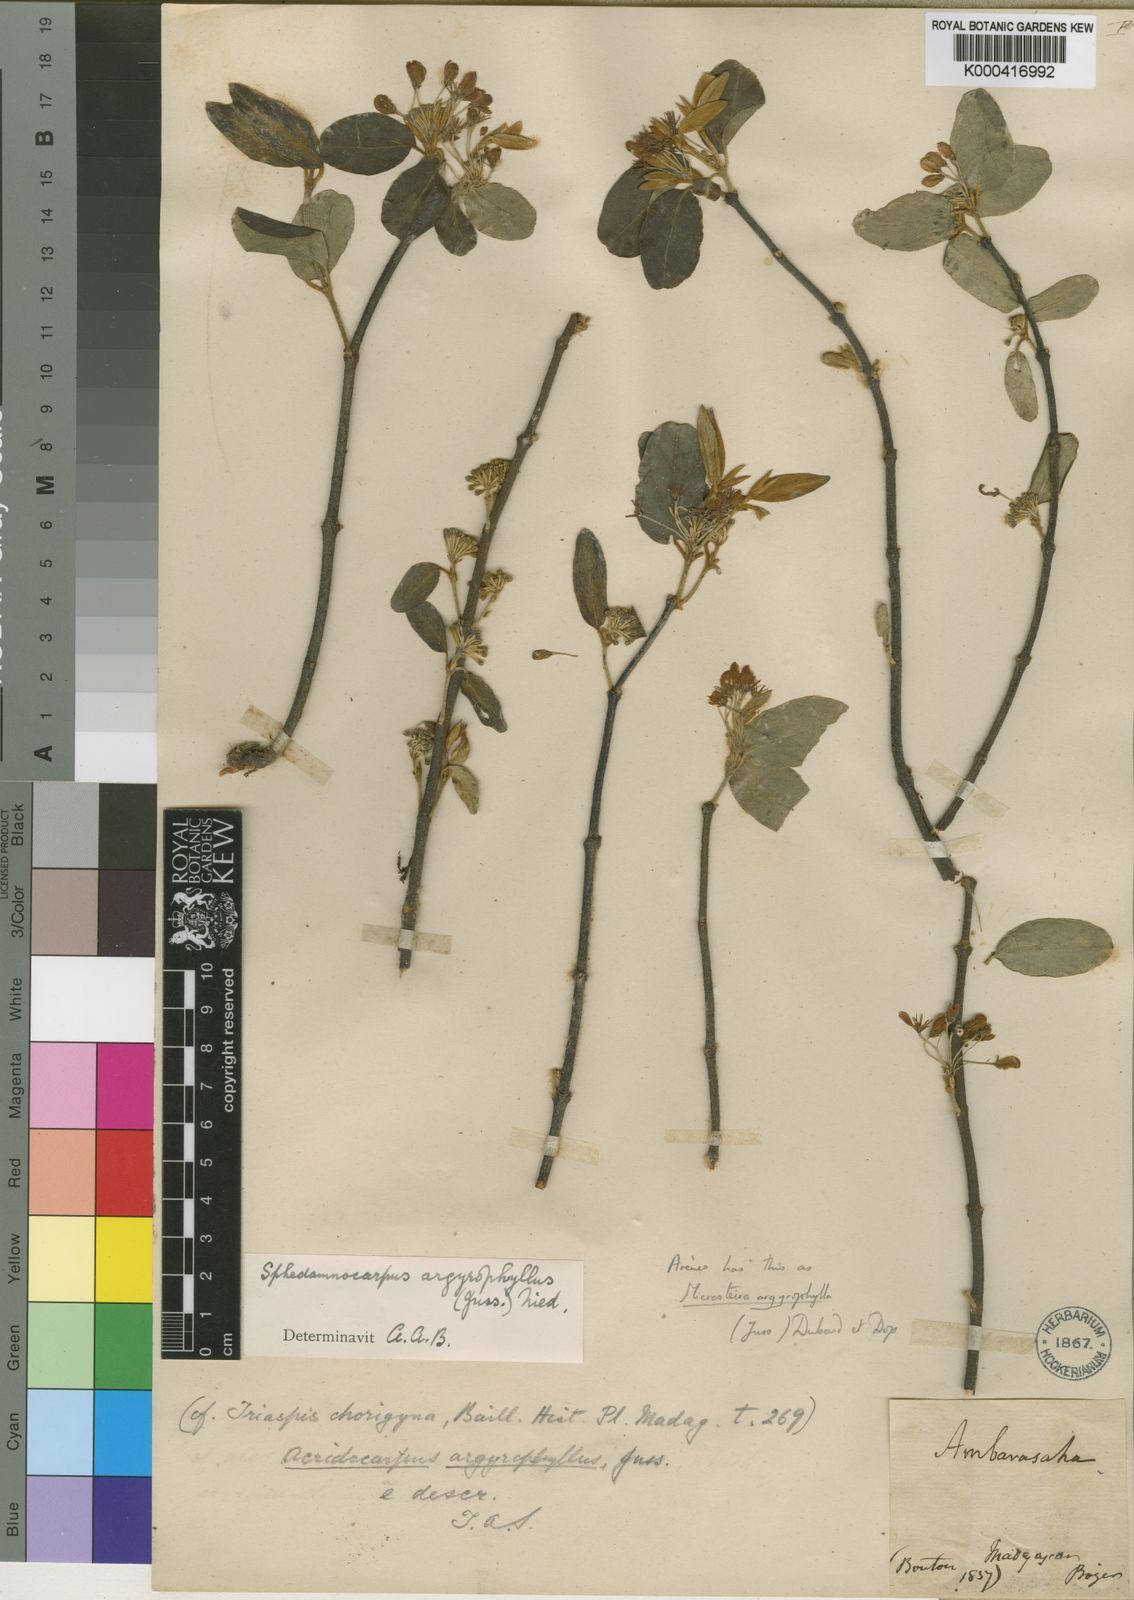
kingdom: Plantae
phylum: Tracheophyta
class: Magnoliopsida
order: Malpighiales
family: Malpighiaceae
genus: Sphedamnocarpus
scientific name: Sphedamnocarpus argyrophyllus
